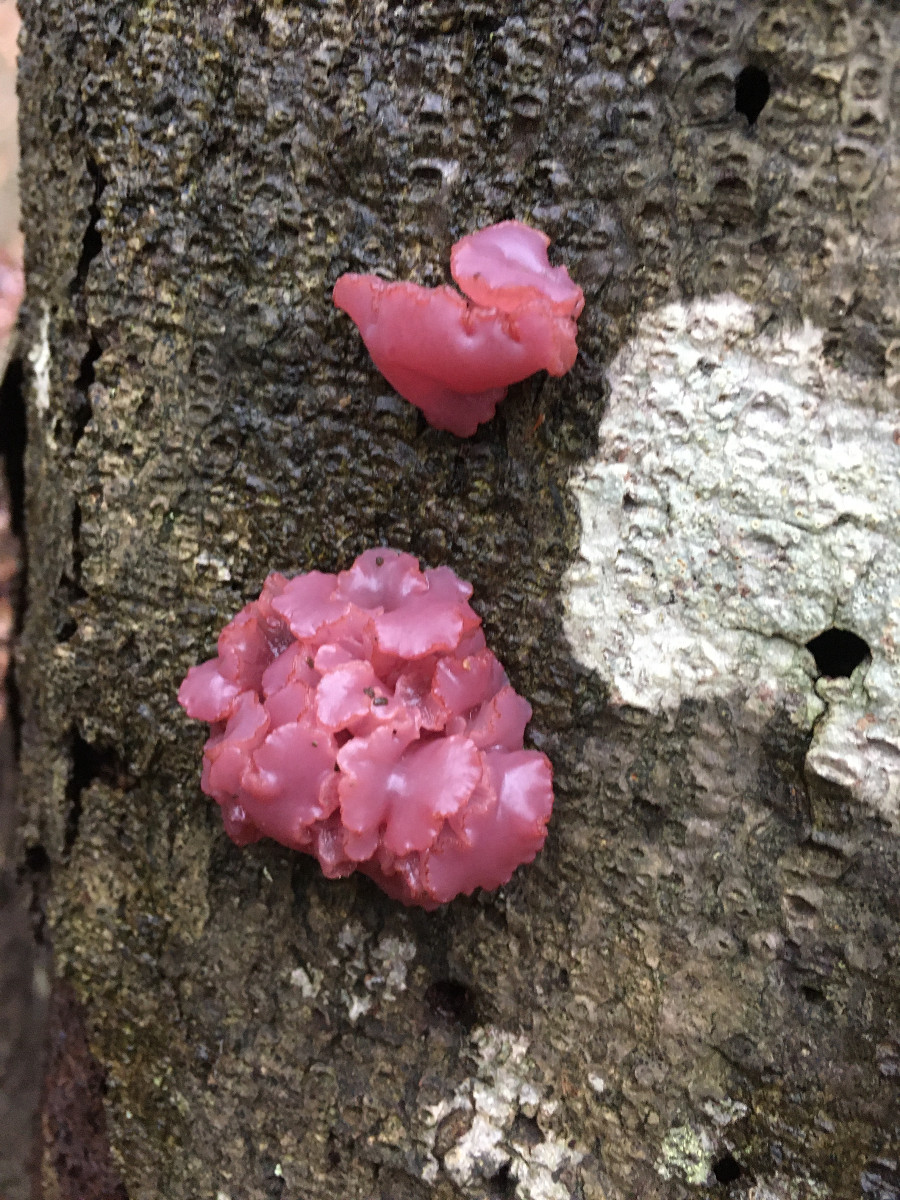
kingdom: Fungi
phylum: Ascomycota
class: Leotiomycetes
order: Helotiales
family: Gelatinodiscaceae
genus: Ascocoryne
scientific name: Ascocoryne sarcoides
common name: rødlilla sejskive
